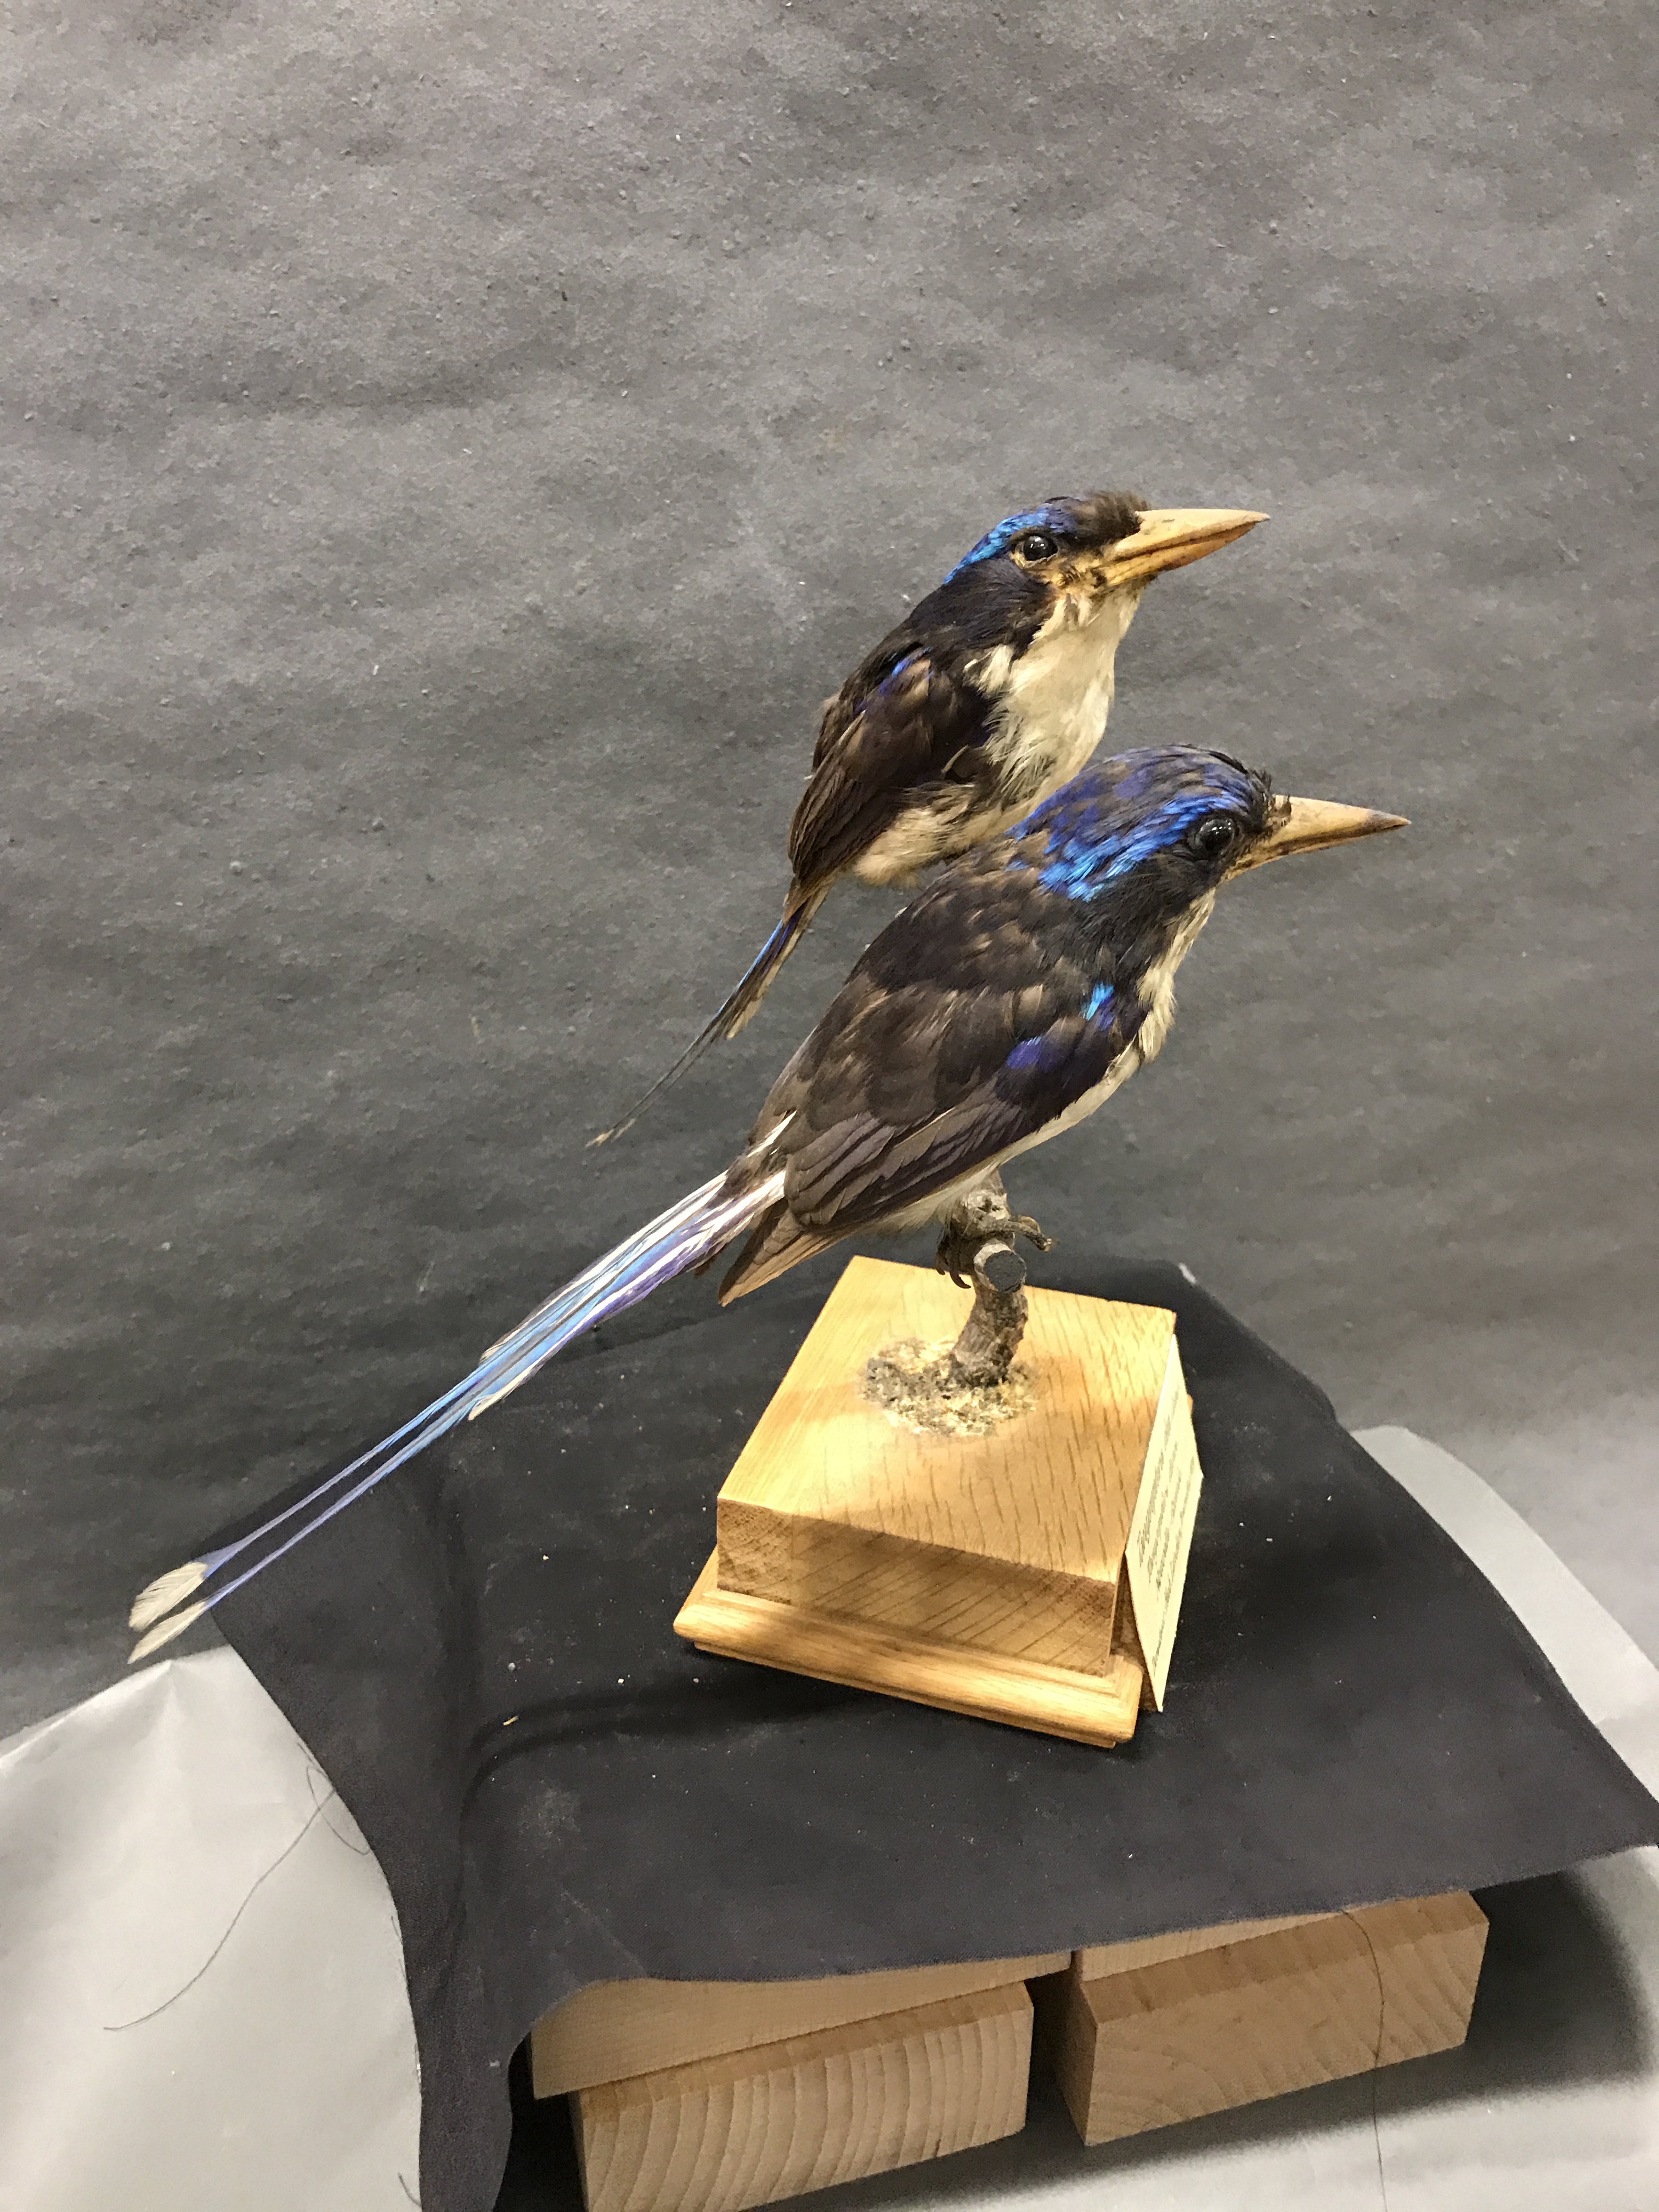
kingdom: Animalia
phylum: Chordata
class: Aves
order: Coraciiformes
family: Alcedinidae
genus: Tanysiptera
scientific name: Tanysiptera hydrocharis
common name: Little paradise kingfisher
